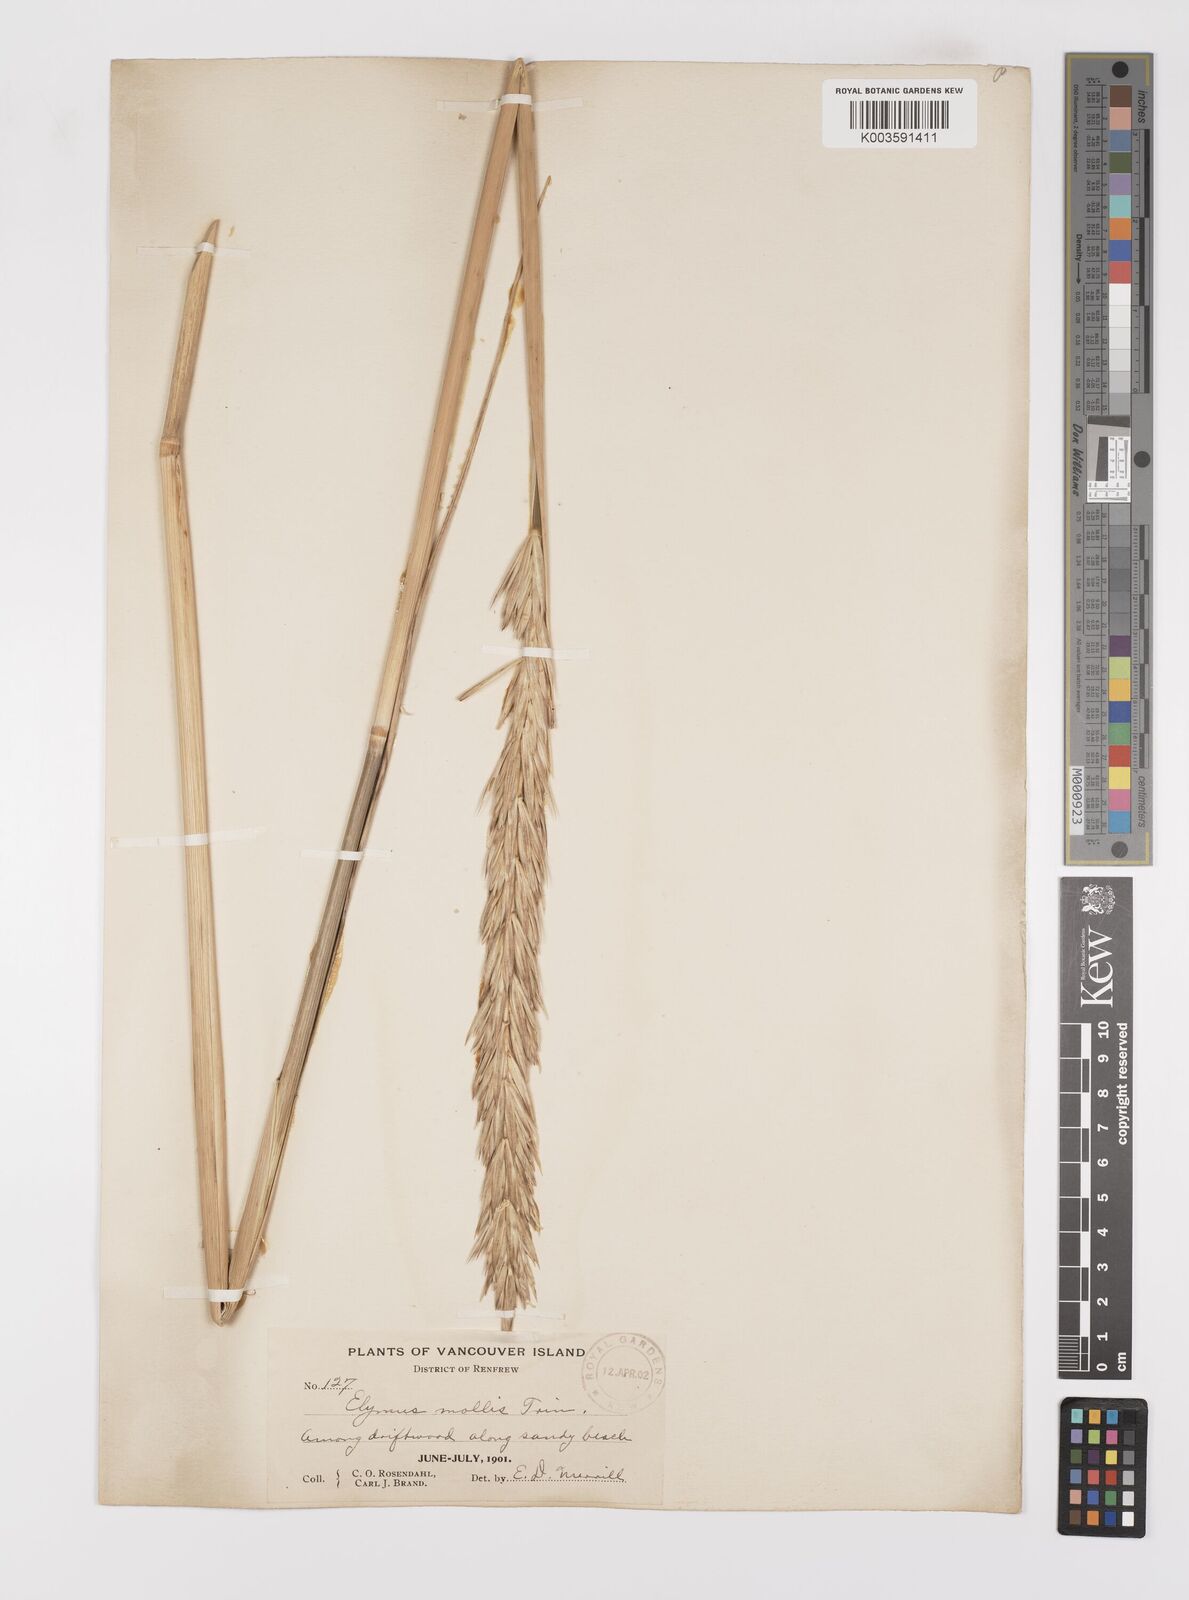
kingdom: Plantae
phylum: Tracheophyta
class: Liliopsida
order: Poales
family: Poaceae
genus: Leymus
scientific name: Leymus mollis
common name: American dune grass
